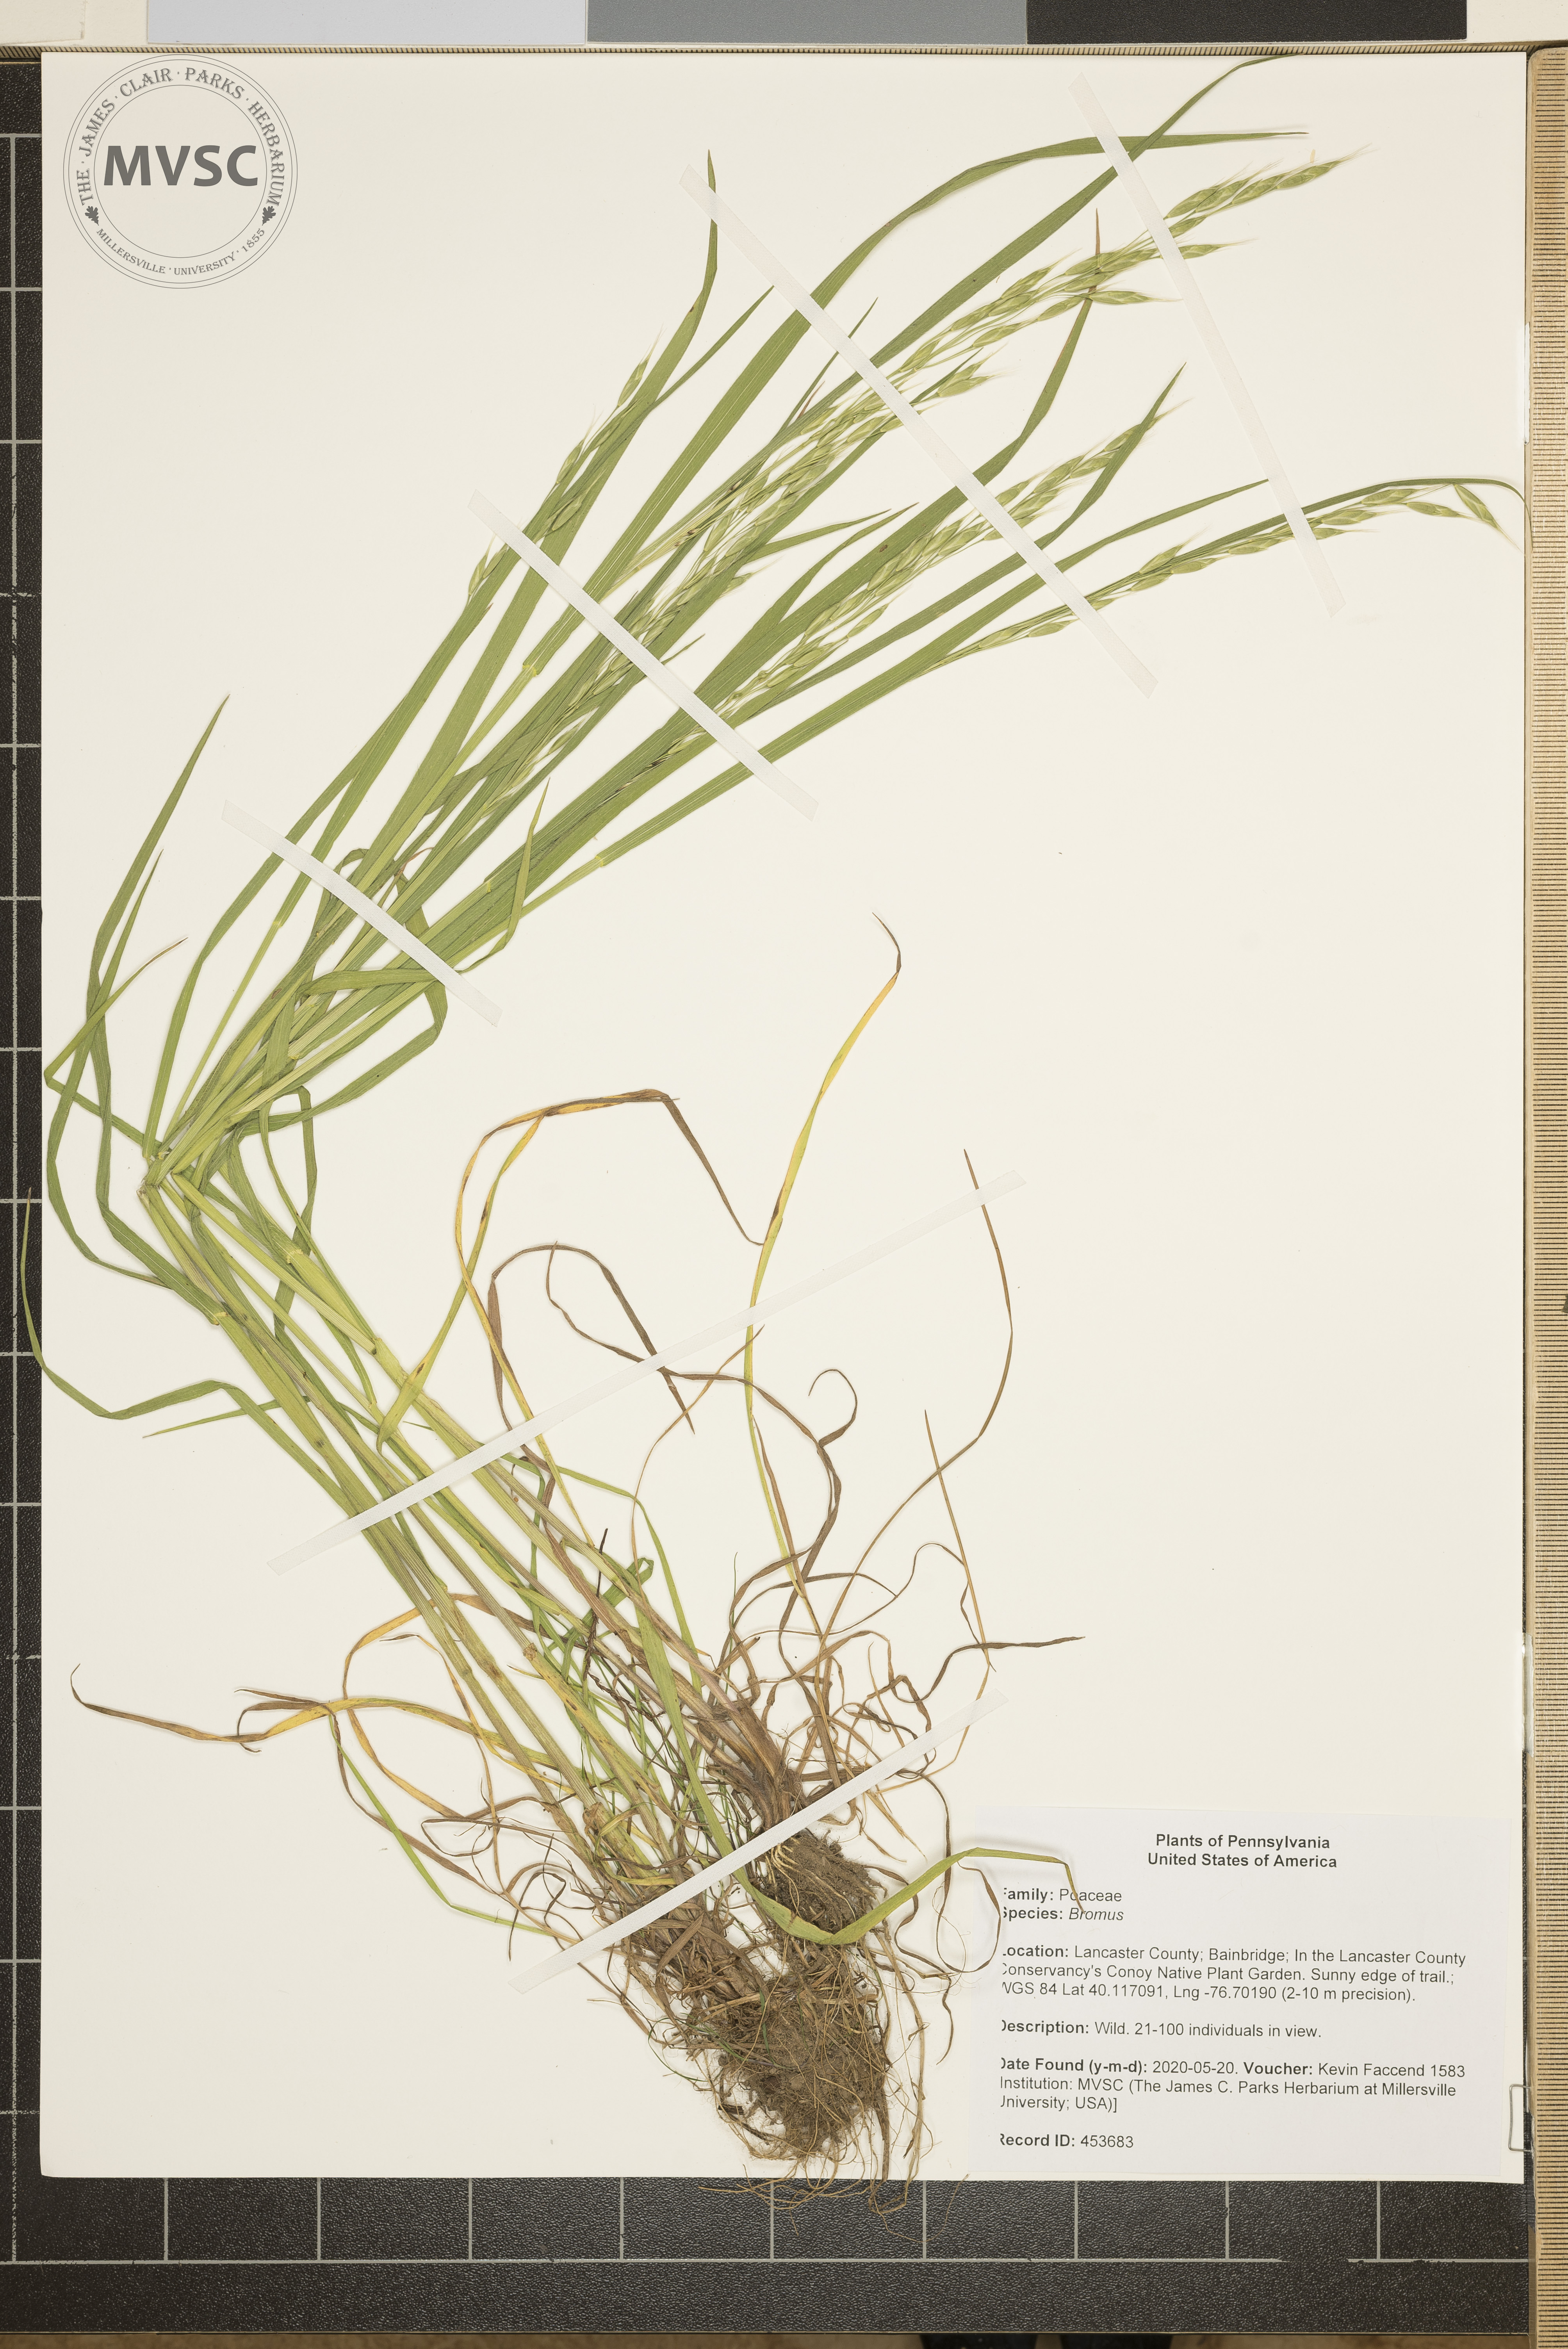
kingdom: Plantae
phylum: Tracheophyta
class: Liliopsida
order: Poales
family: Poaceae
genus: Bromus
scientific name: Bromus
